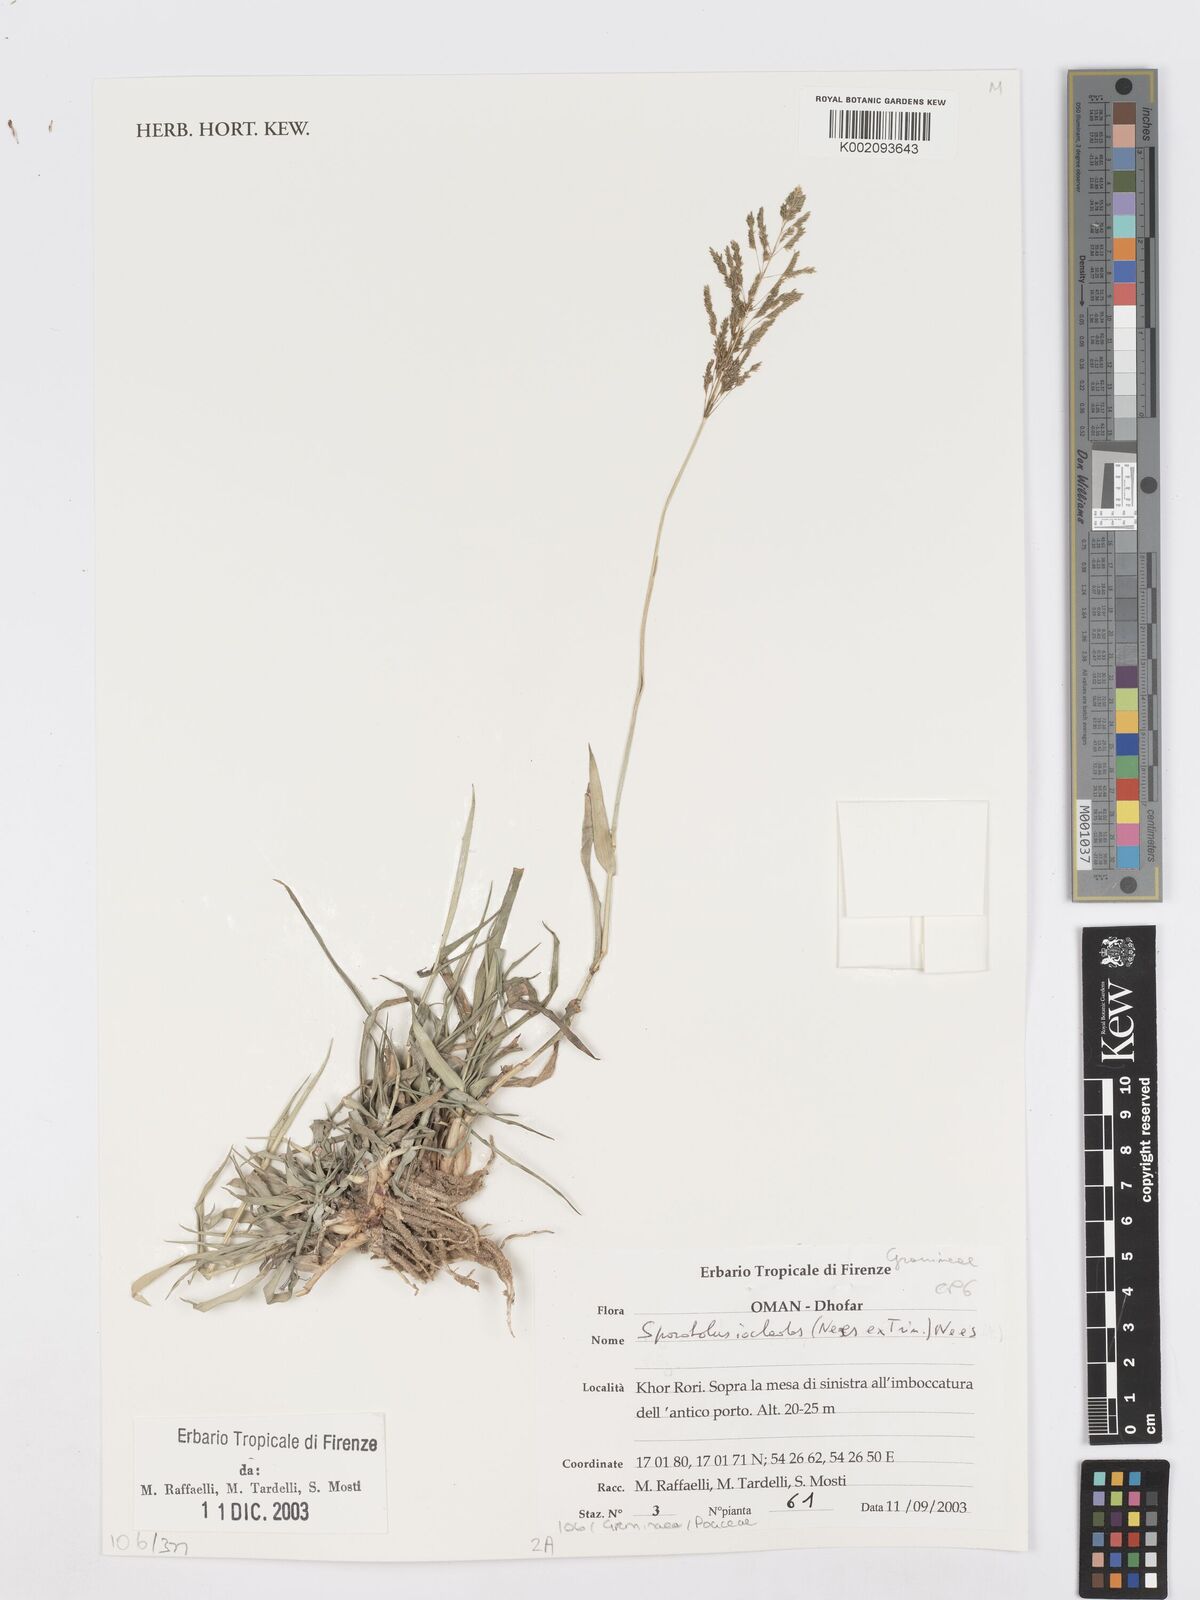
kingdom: Plantae
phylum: Tracheophyta
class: Liliopsida
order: Poales
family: Poaceae
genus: Sporobolus
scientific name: Sporobolus ioclados
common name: Pan dropseed
